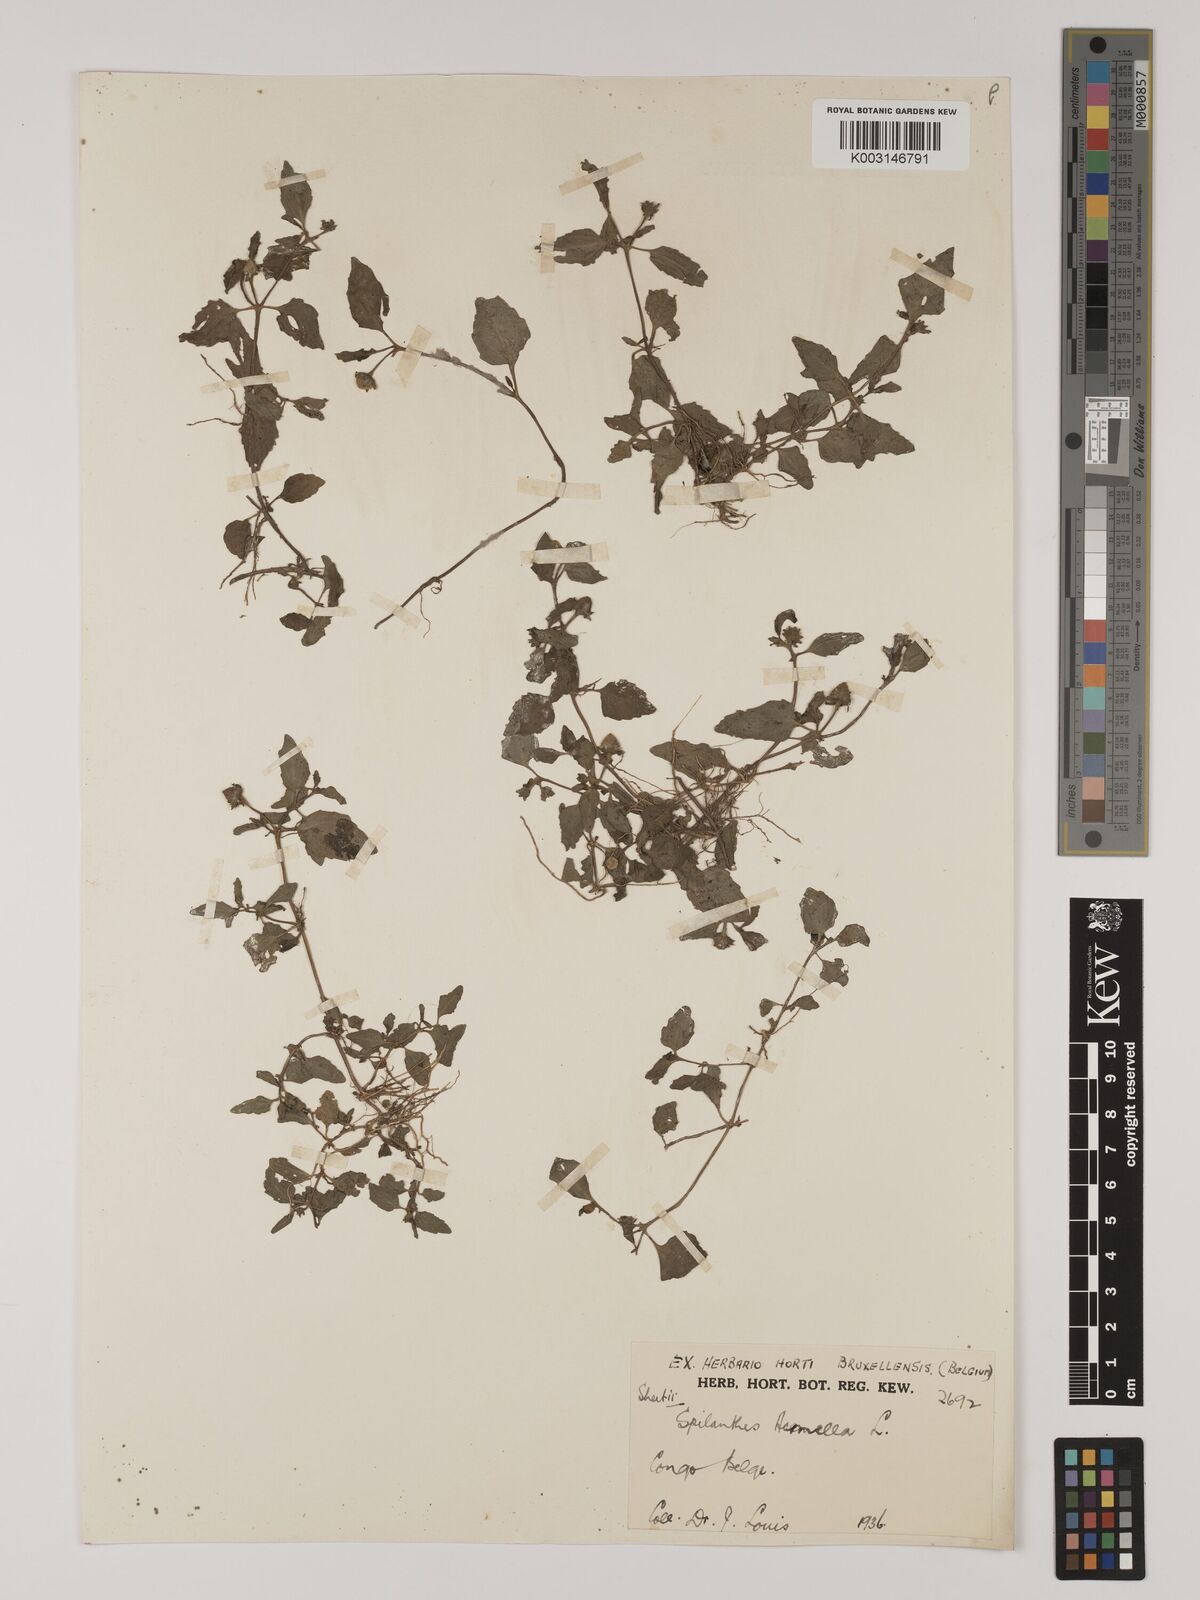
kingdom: Plantae
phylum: Tracheophyta
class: Magnoliopsida
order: Asterales
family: Asteraceae
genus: Acmella
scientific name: Acmella caulirhiza
